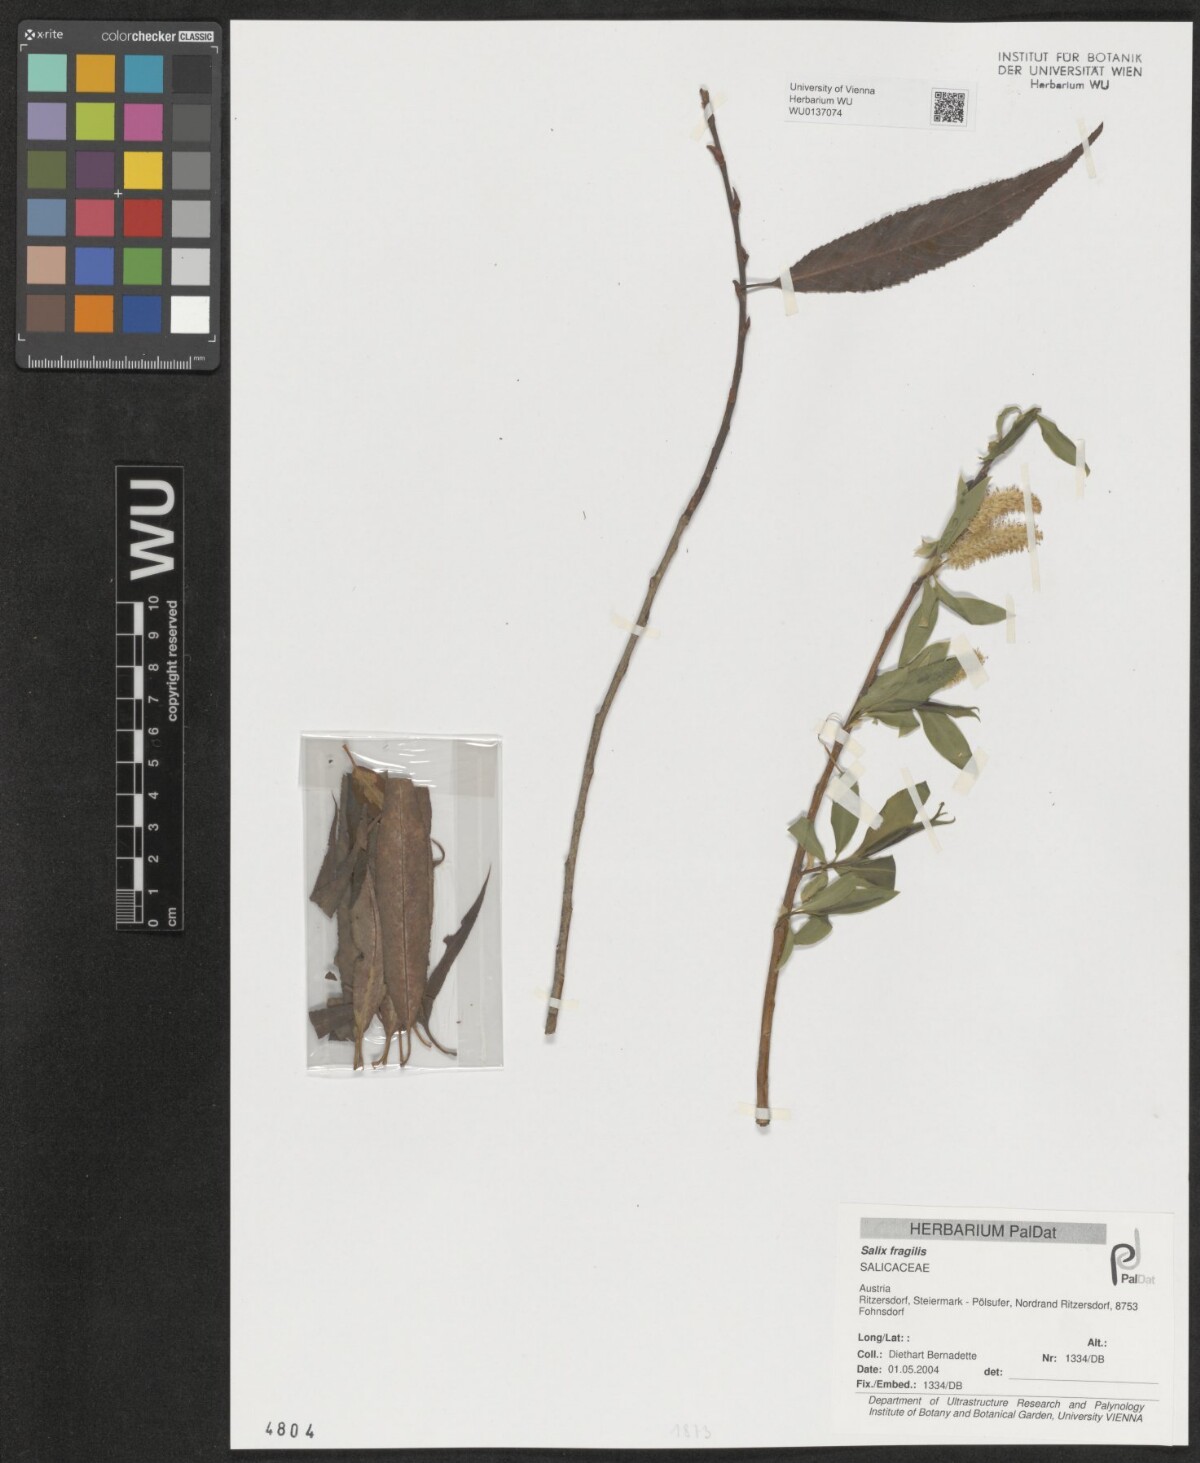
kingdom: Plantae
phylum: Tracheophyta
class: Magnoliopsida
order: Malpighiales
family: Salicaceae
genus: Salix
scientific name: Salix fragilis
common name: Crack willow
